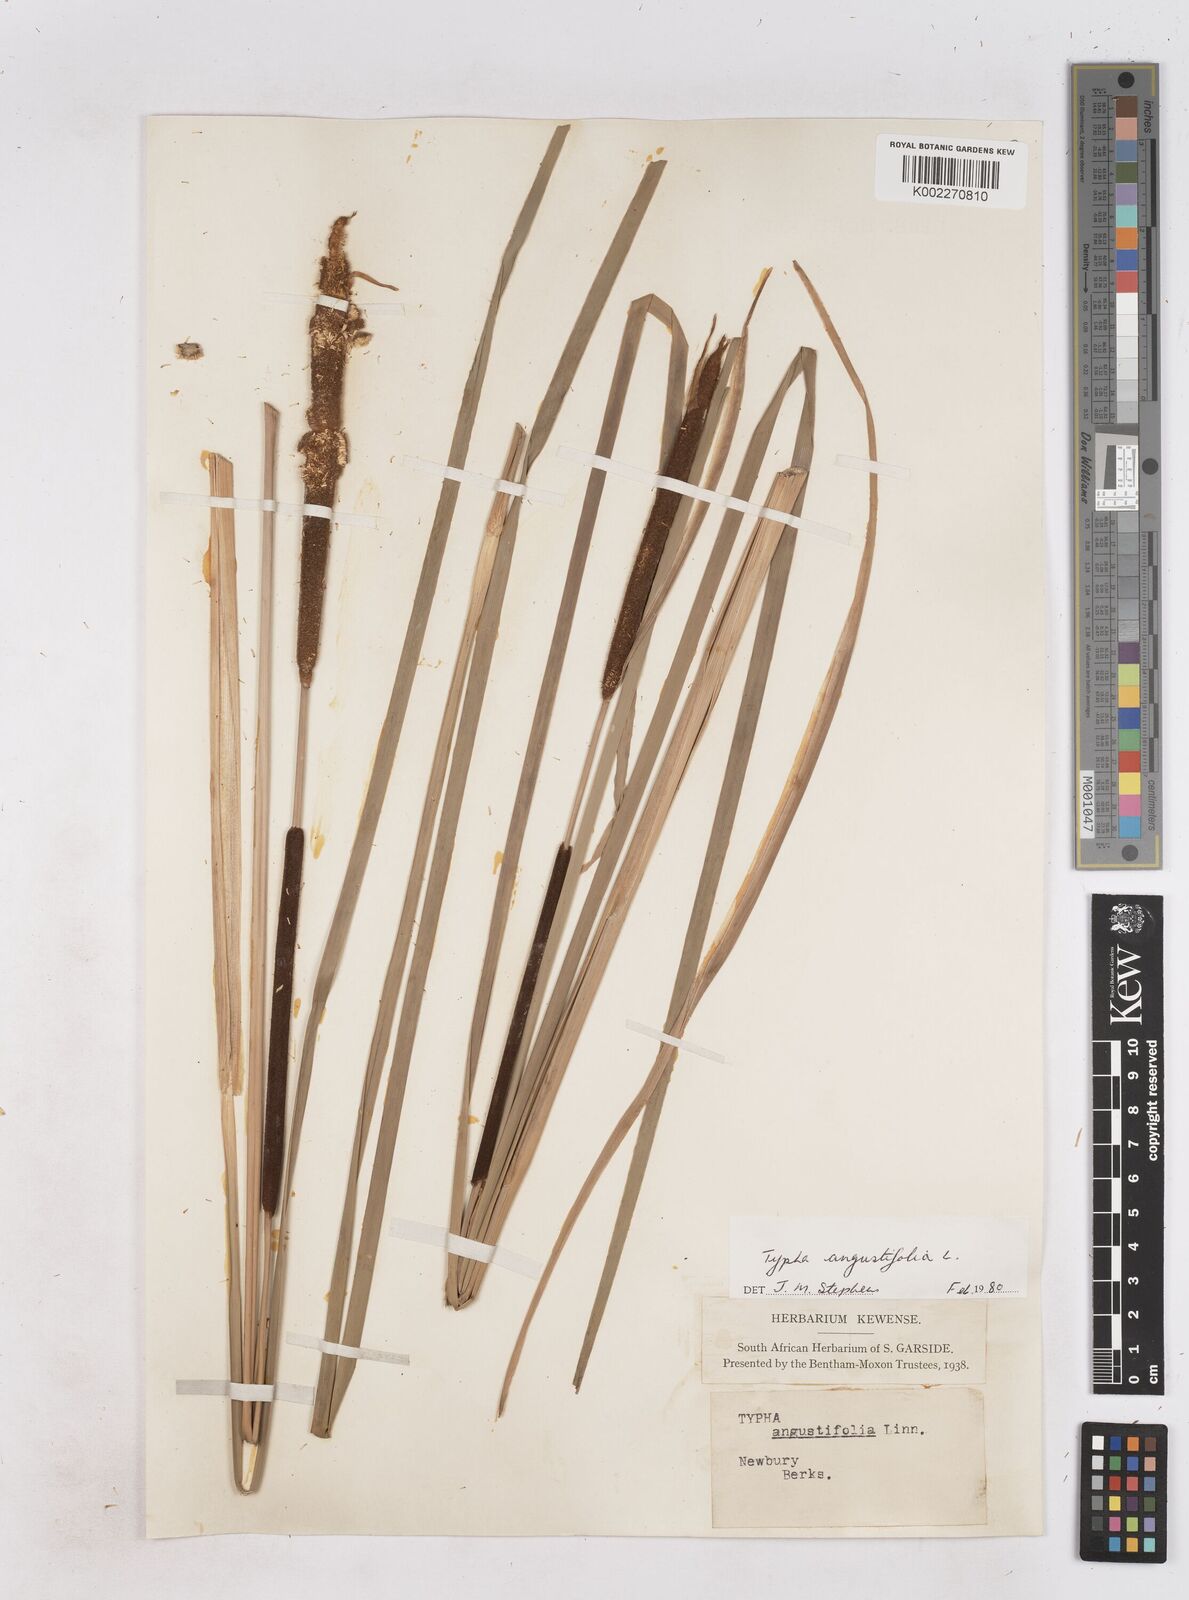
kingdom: Plantae
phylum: Tracheophyta
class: Liliopsida
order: Poales
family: Typhaceae
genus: Typha
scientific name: Typha angustifolia
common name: Lesser bulrush
